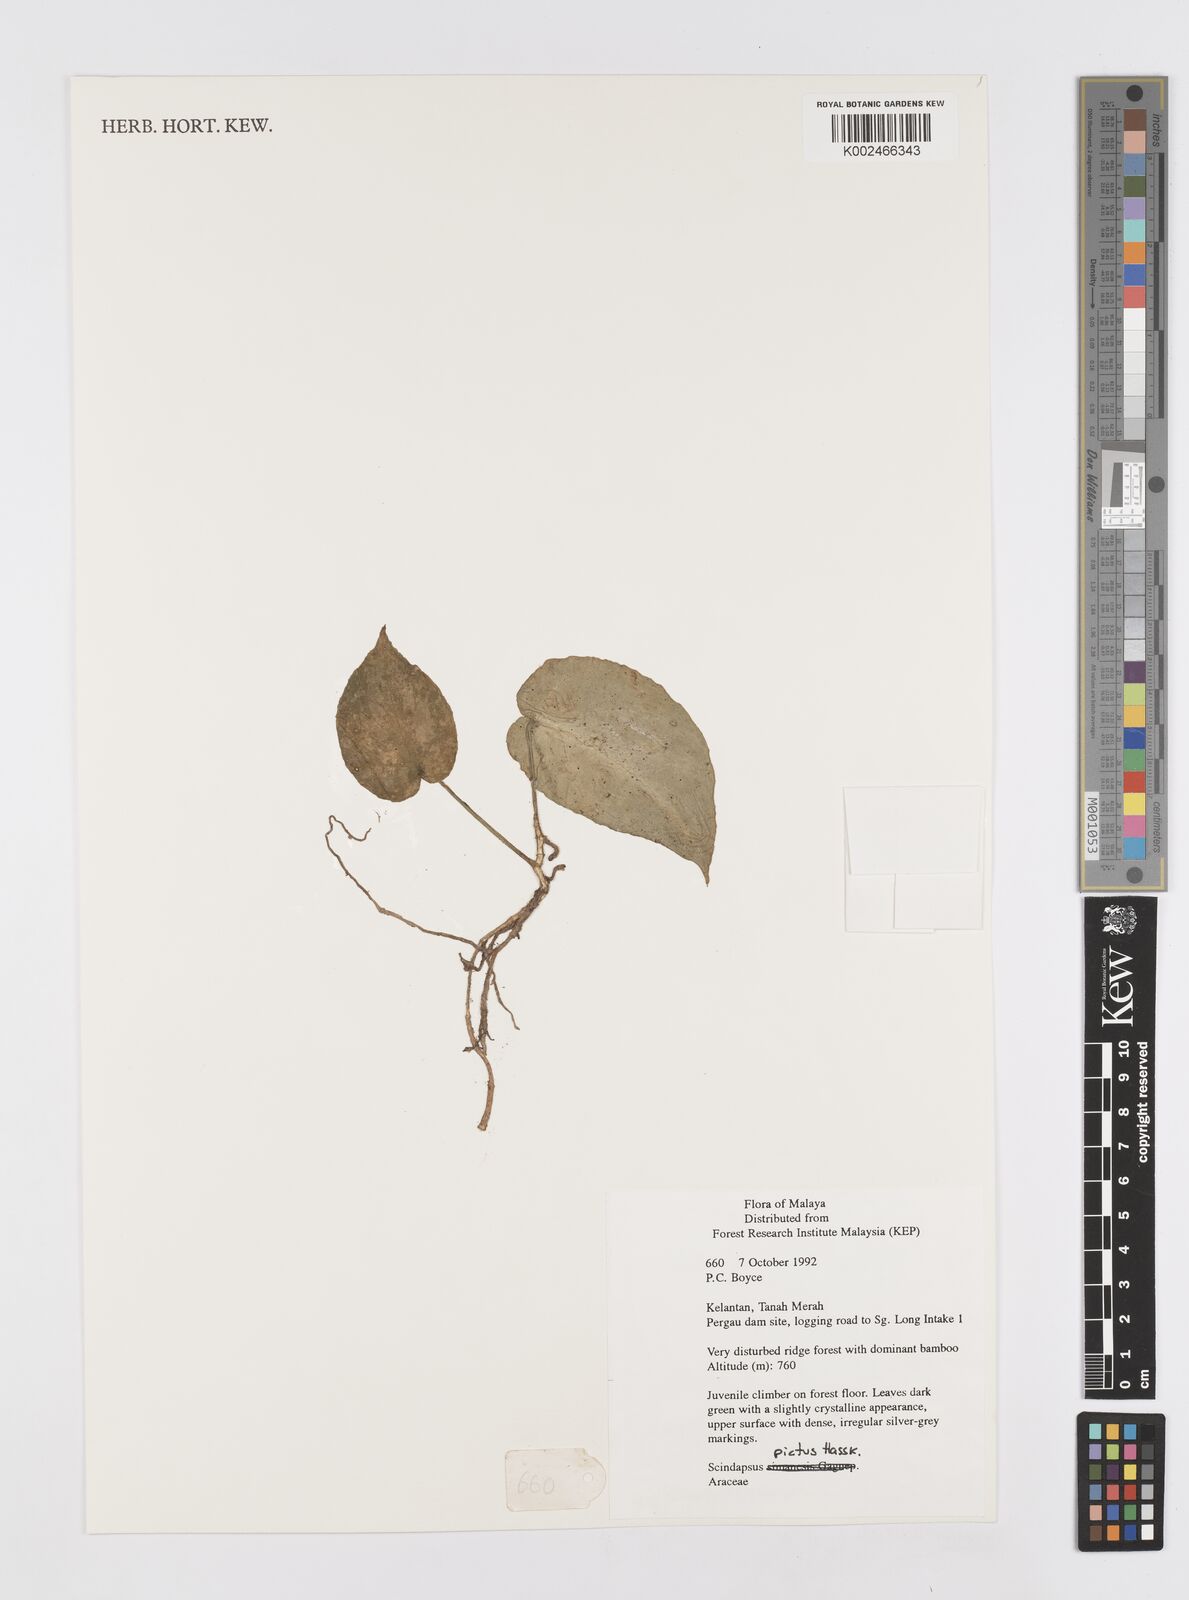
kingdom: Plantae
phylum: Tracheophyta
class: Liliopsida
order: Alismatales
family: Araceae
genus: Scindapsus
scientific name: Scindapsus pictus
